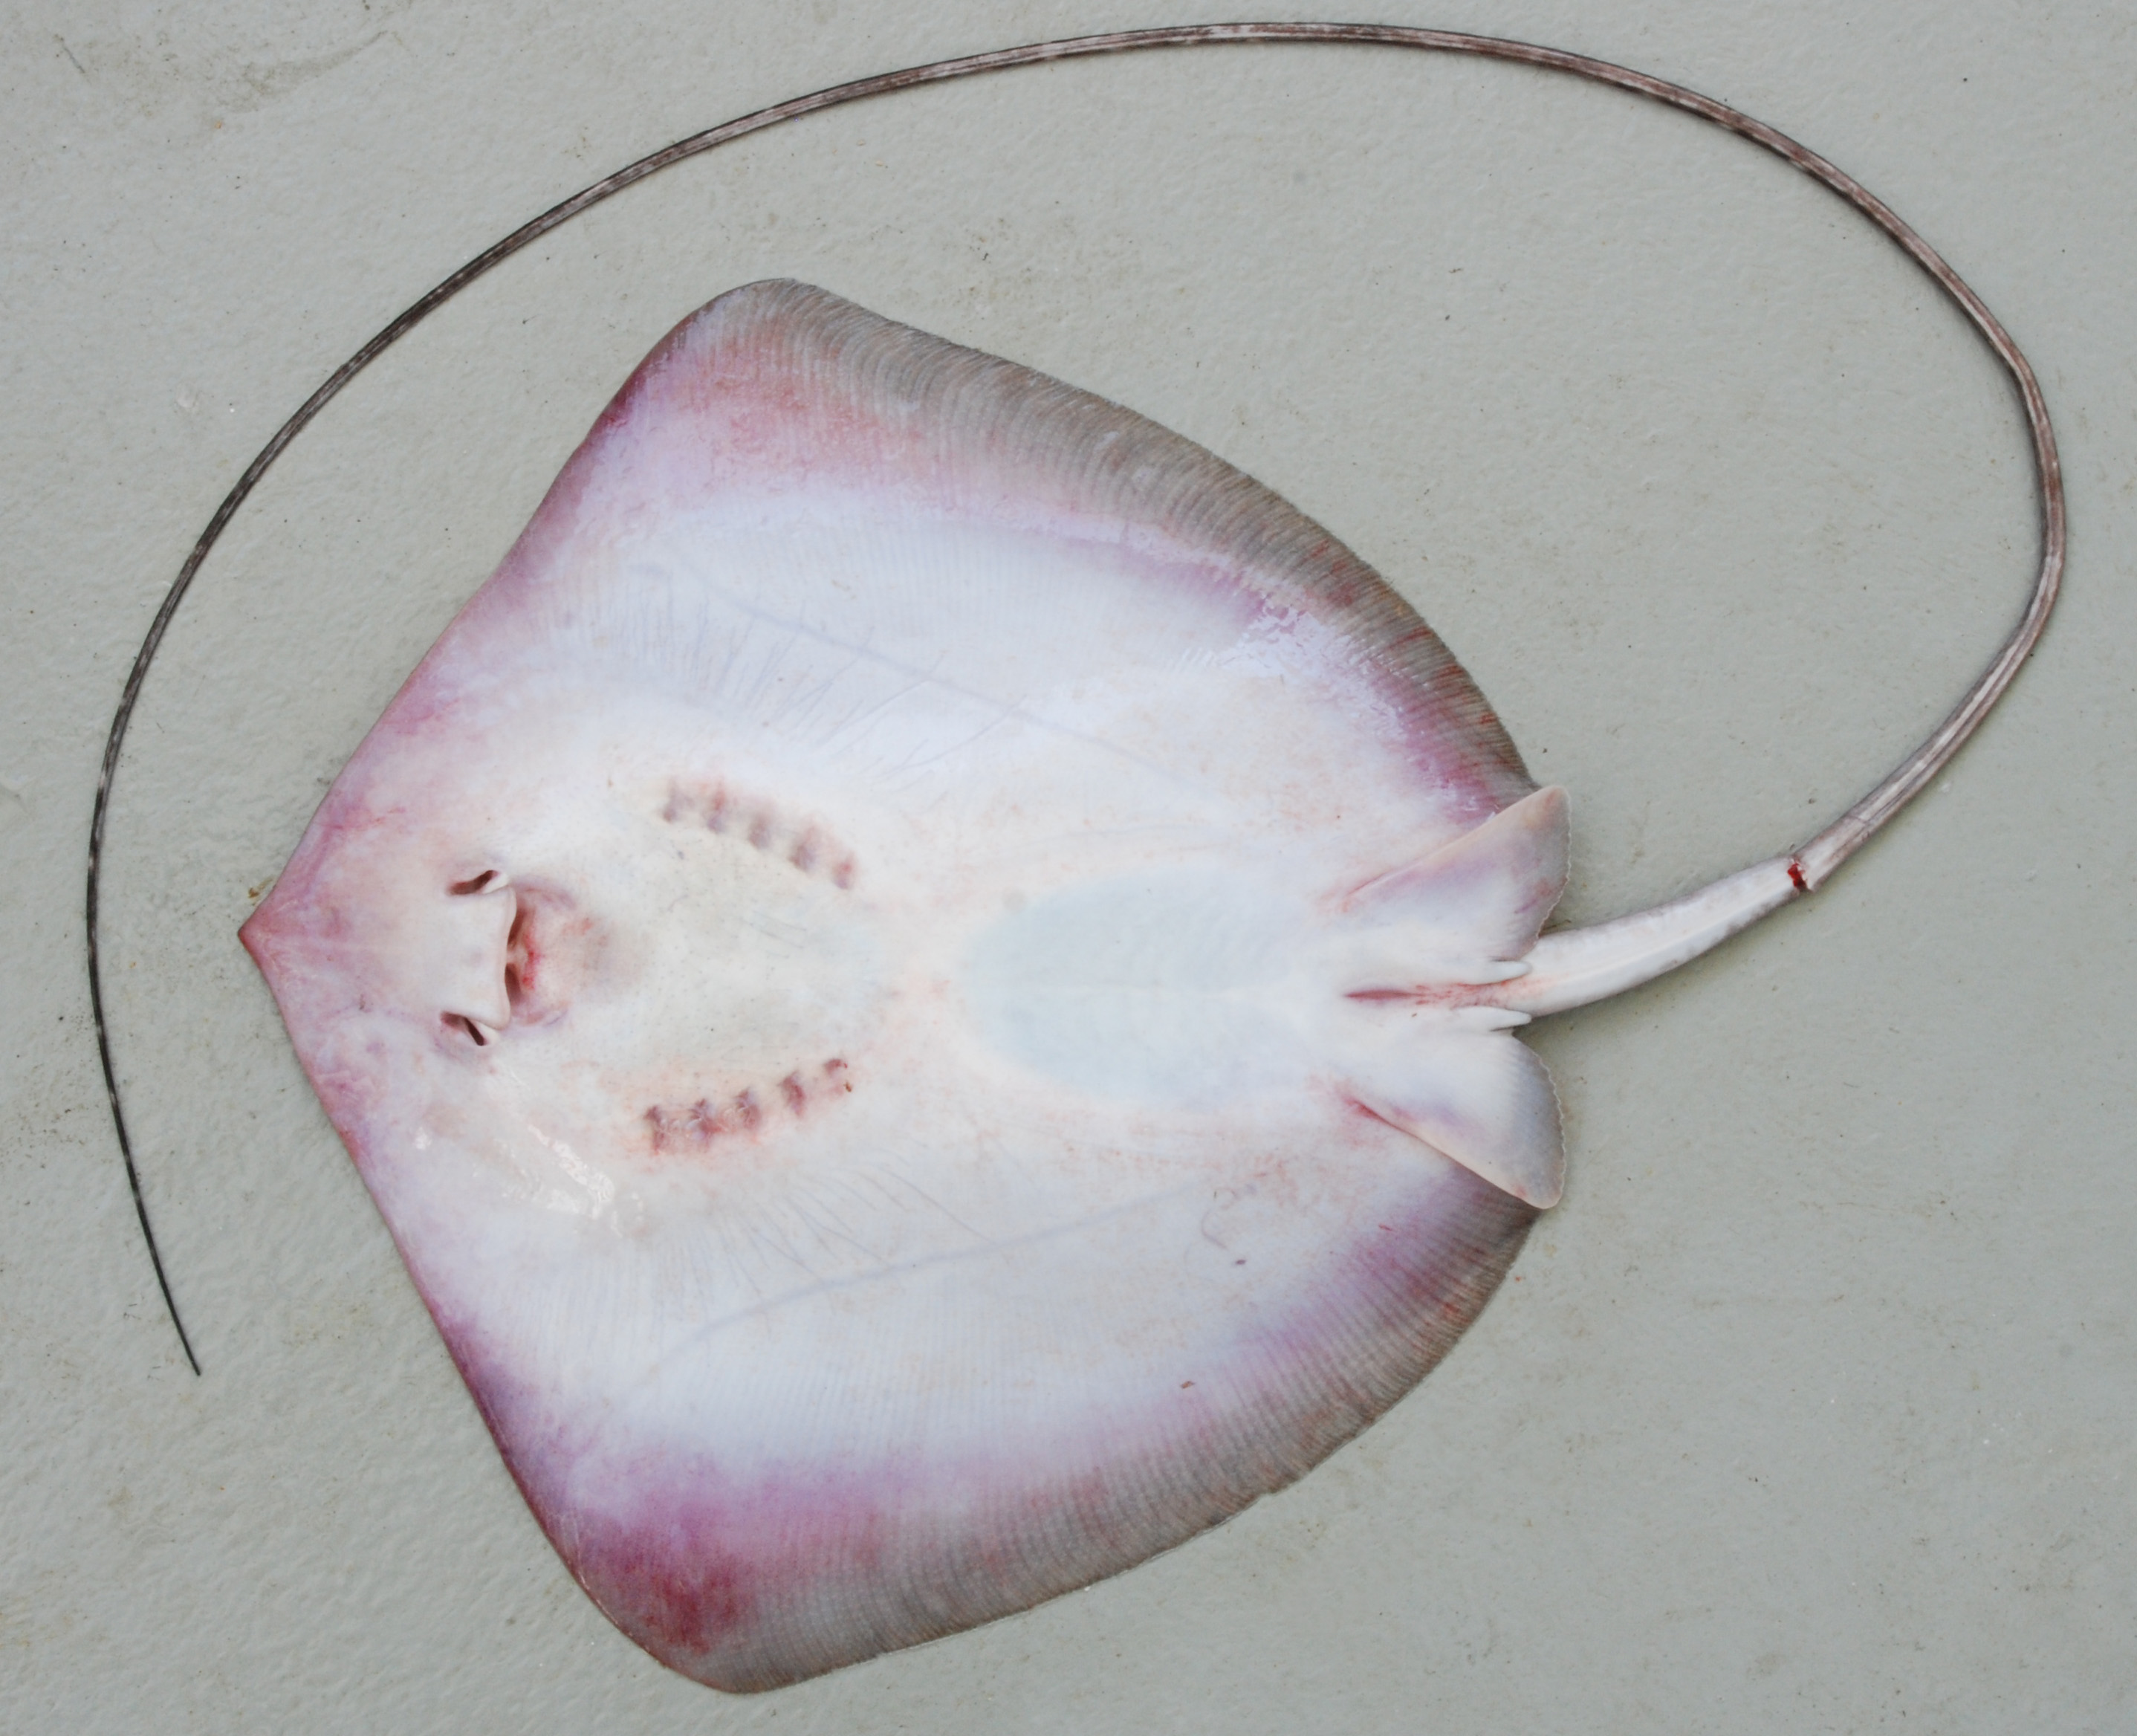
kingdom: Animalia
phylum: Chordata
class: Elasmobranchii
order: Myliobatiformes
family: Dasyatidae
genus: Maculabatis
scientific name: Maculabatis gerrardi
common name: Sharpnose stingray
